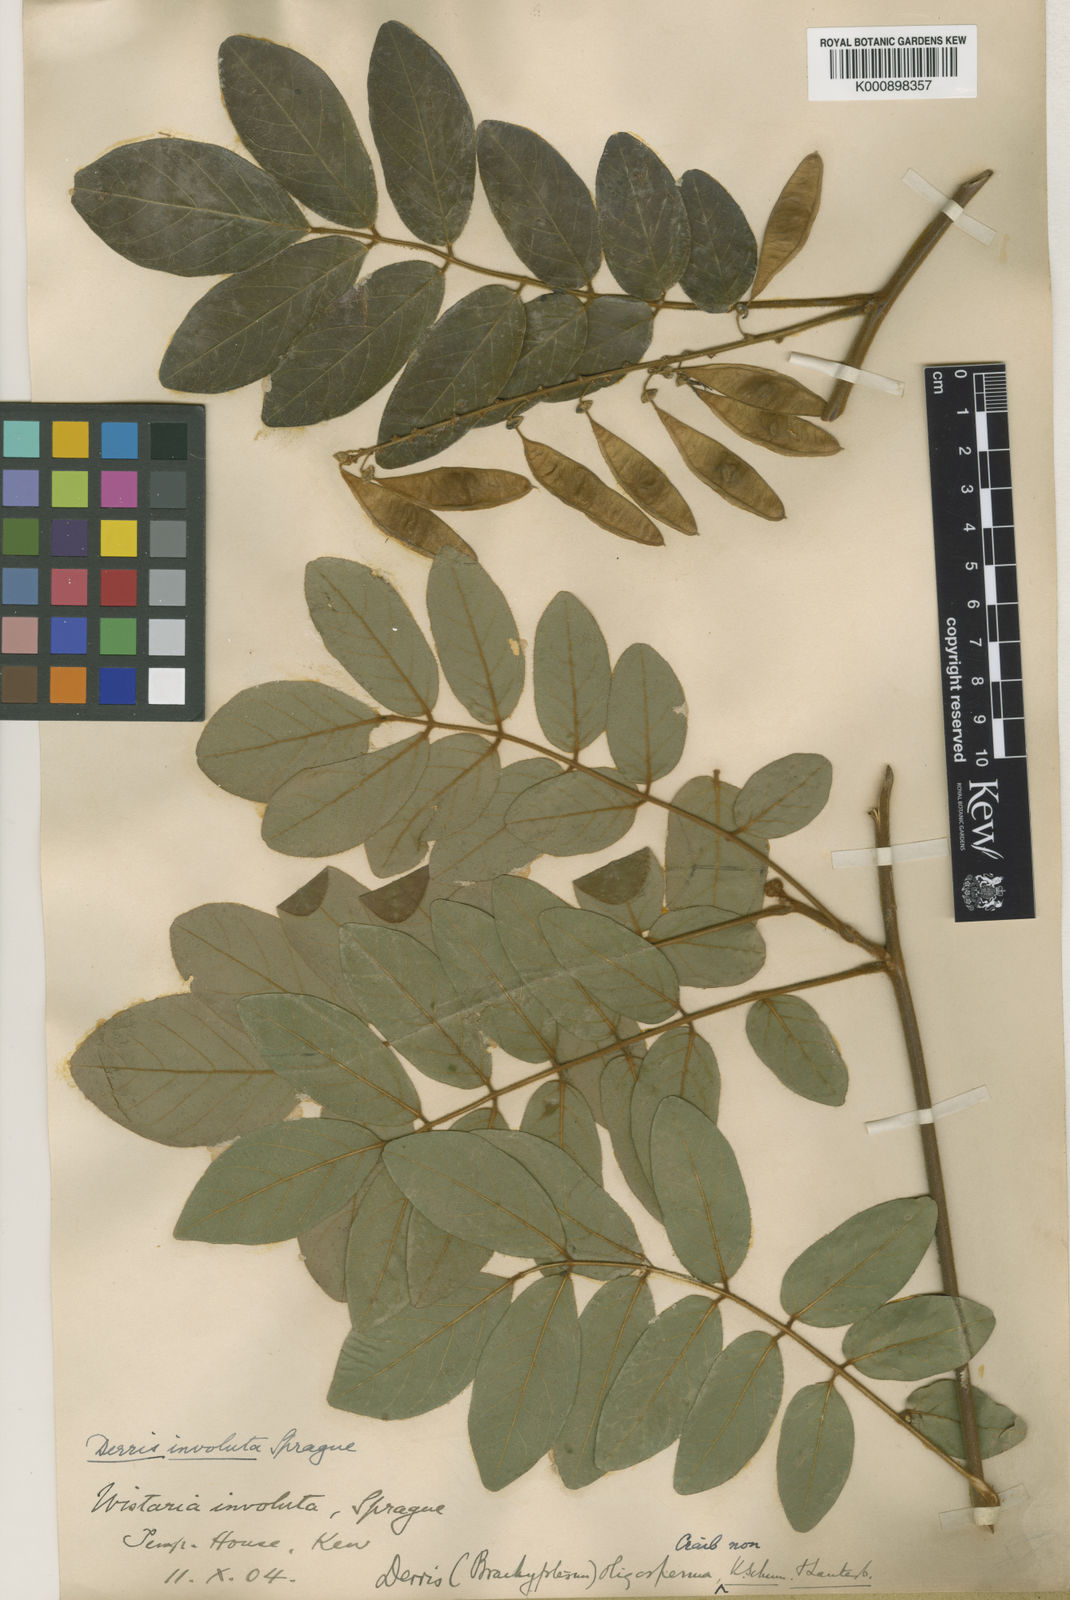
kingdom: Plantae
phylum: Tracheophyta
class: Magnoliopsida
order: Fabales
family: Fabaceae
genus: Brachypterum
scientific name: Brachypterum involutum
